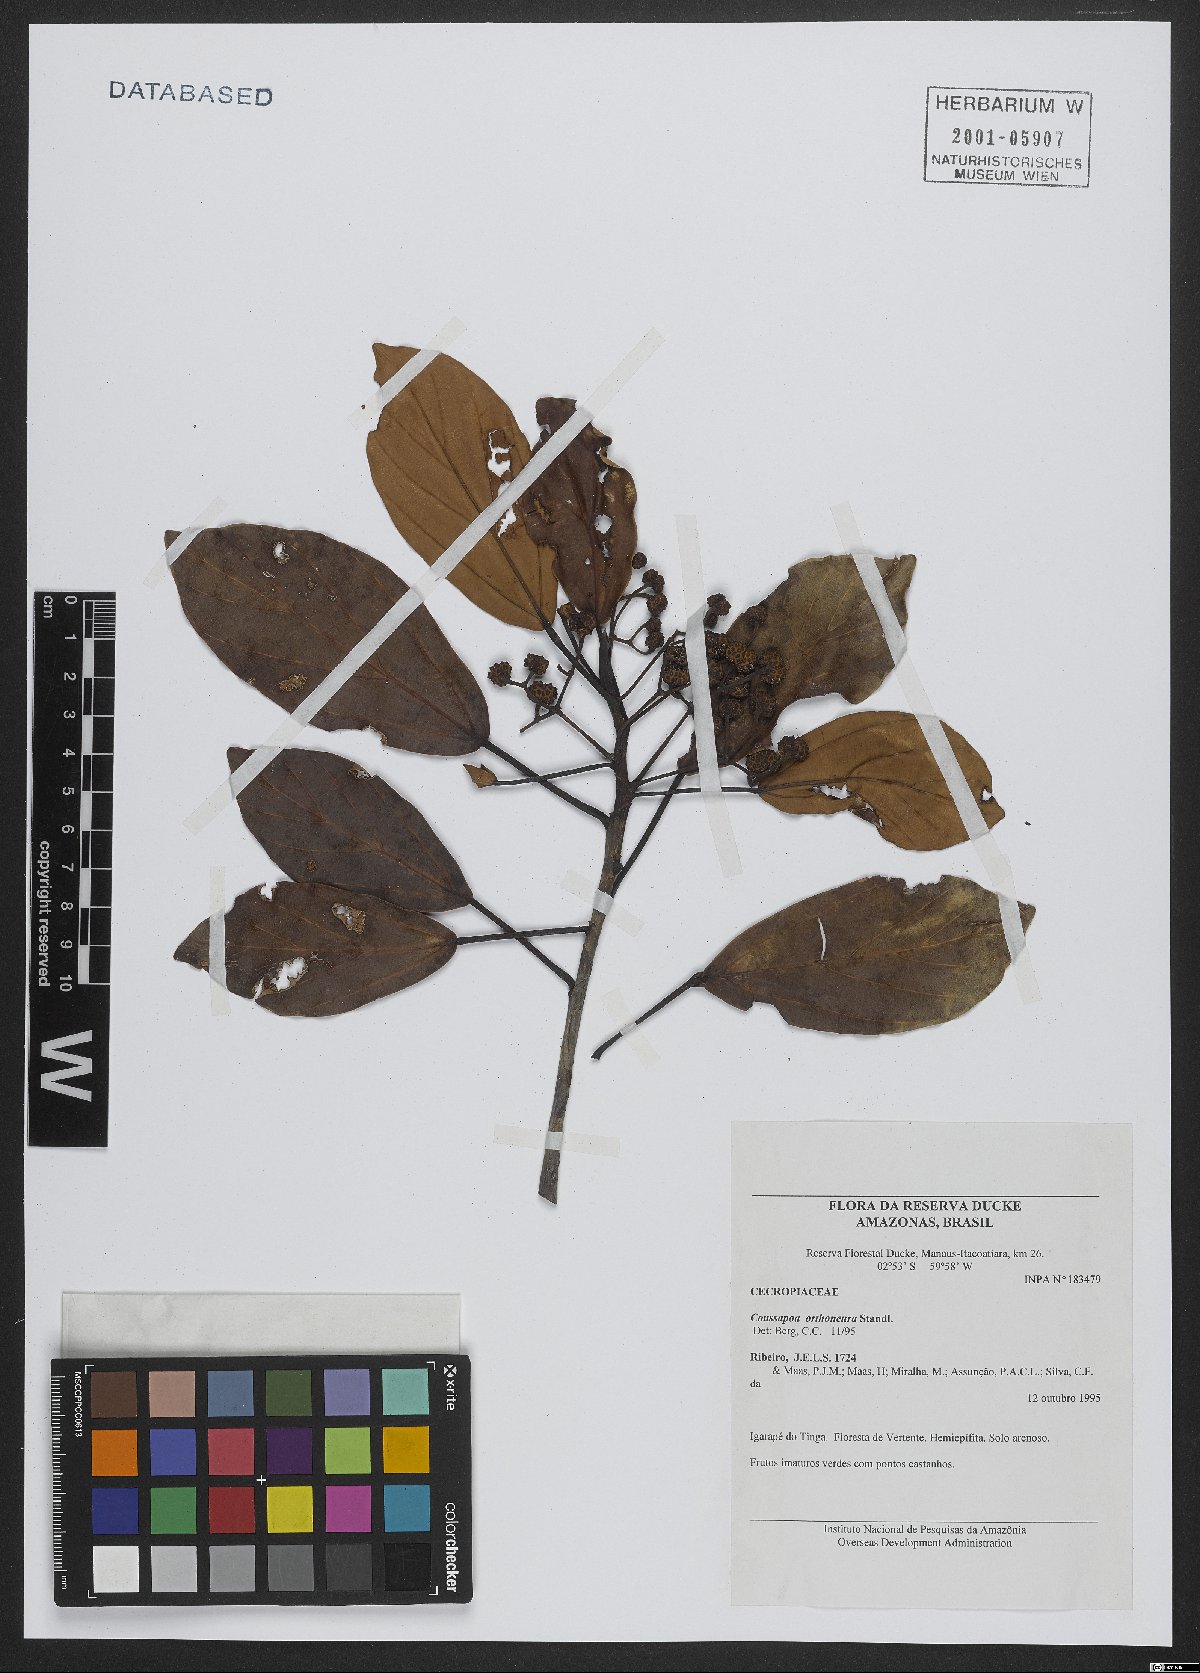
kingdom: Plantae
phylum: Tracheophyta
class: Magnoliopsida
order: Rosales
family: Urticaceae
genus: Coussapoa
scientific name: Coussapoa orthoneura
